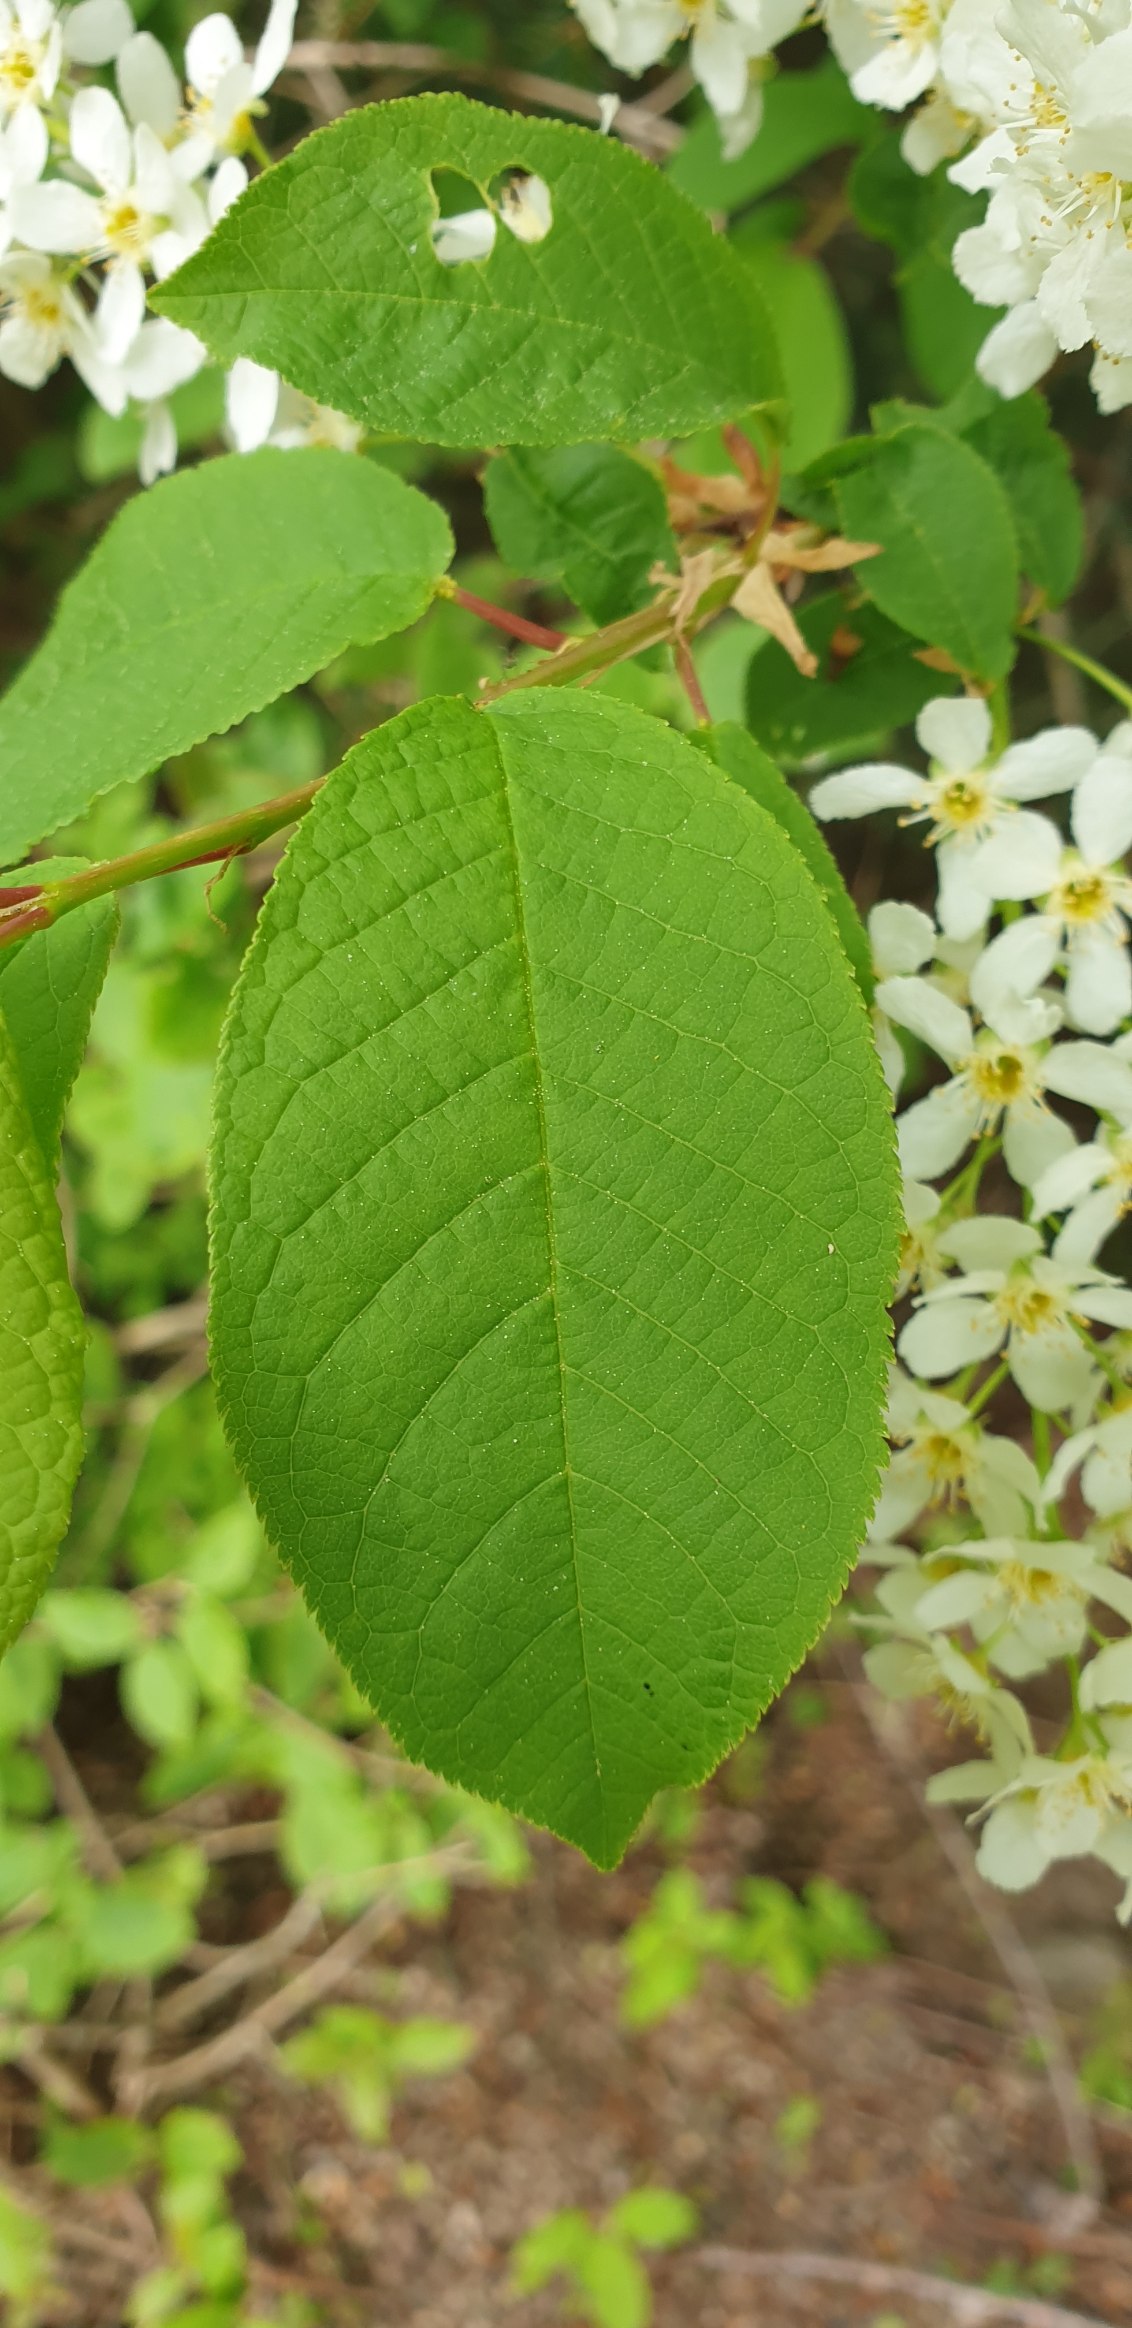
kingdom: Plantae
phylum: Tracheophyta
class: Magnoliopsida
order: Rosales
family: Rosaceae
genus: Prunus
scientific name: Prunus padus
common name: Almindelig hæg
